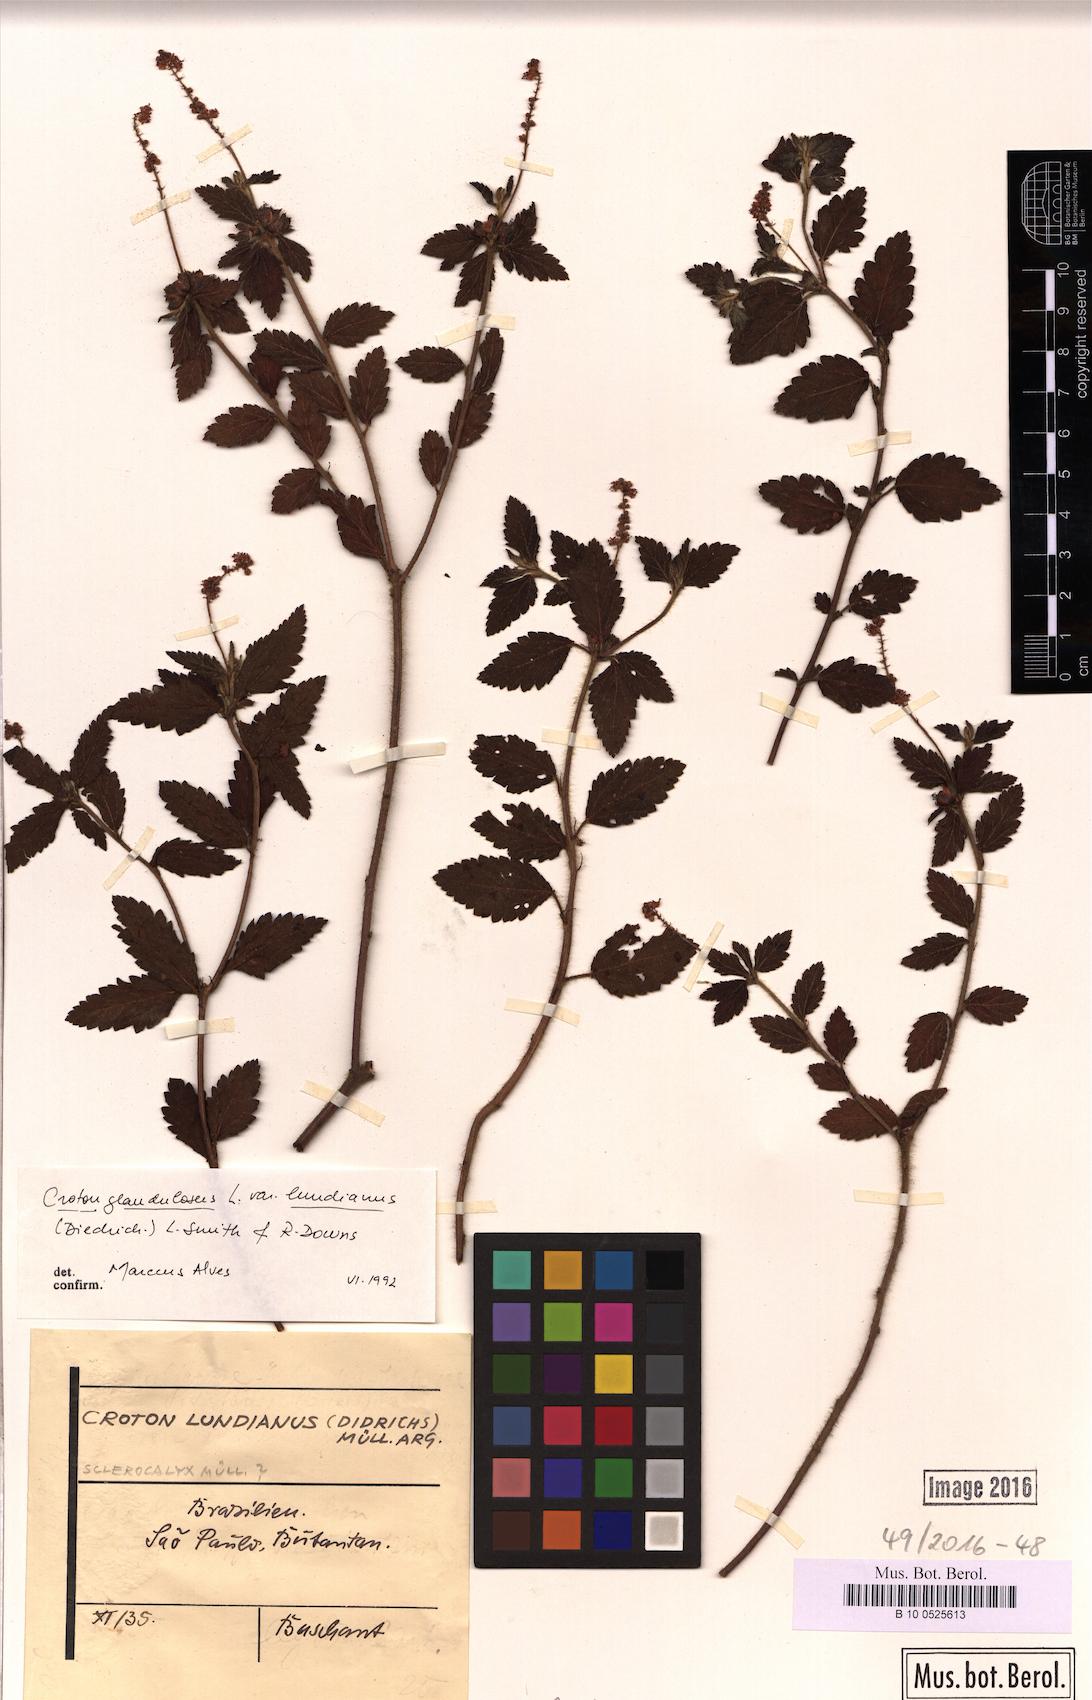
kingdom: Plantae
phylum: Tracheophyta
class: Magnoliopsida
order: Malpighiales
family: Euphorbiaceae
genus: Croton
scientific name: Croton lundianus
